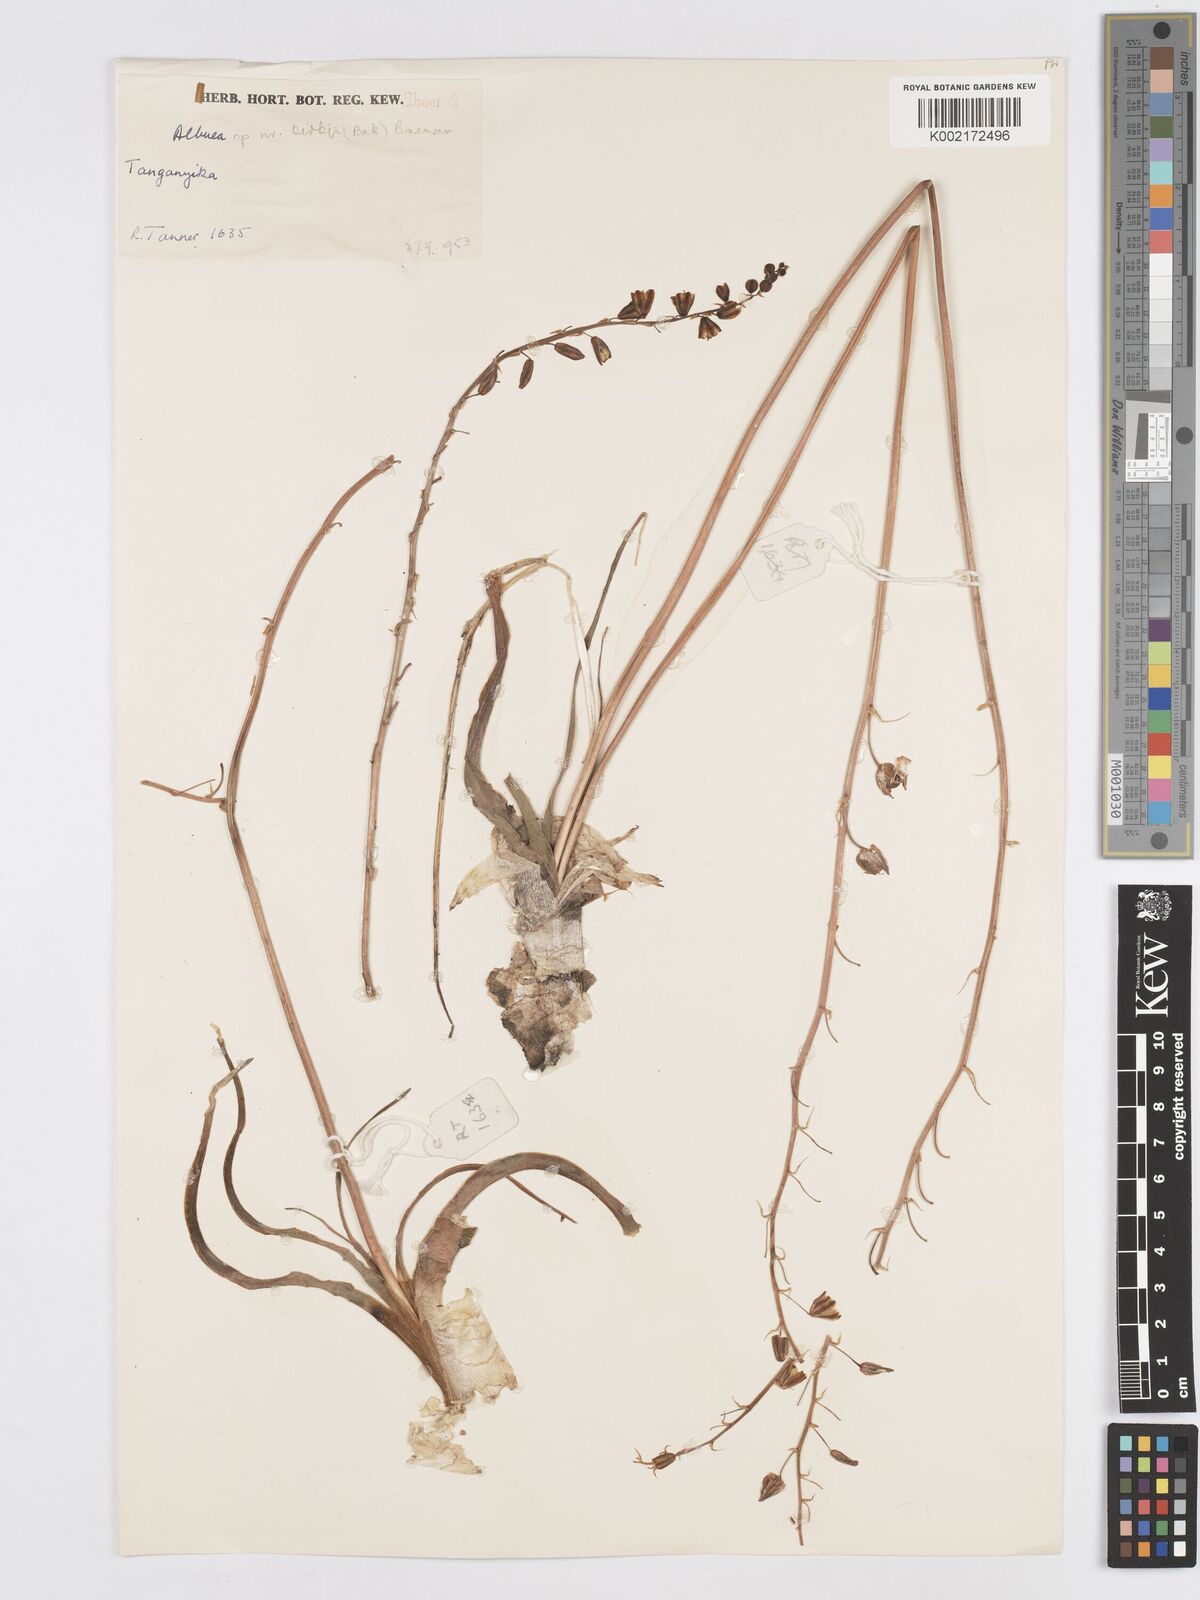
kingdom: Plantae
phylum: Tracheophyta
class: Liliopsida
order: Asparagales
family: Asparagaceae
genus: Albuca
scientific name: Albuca abyssinica
